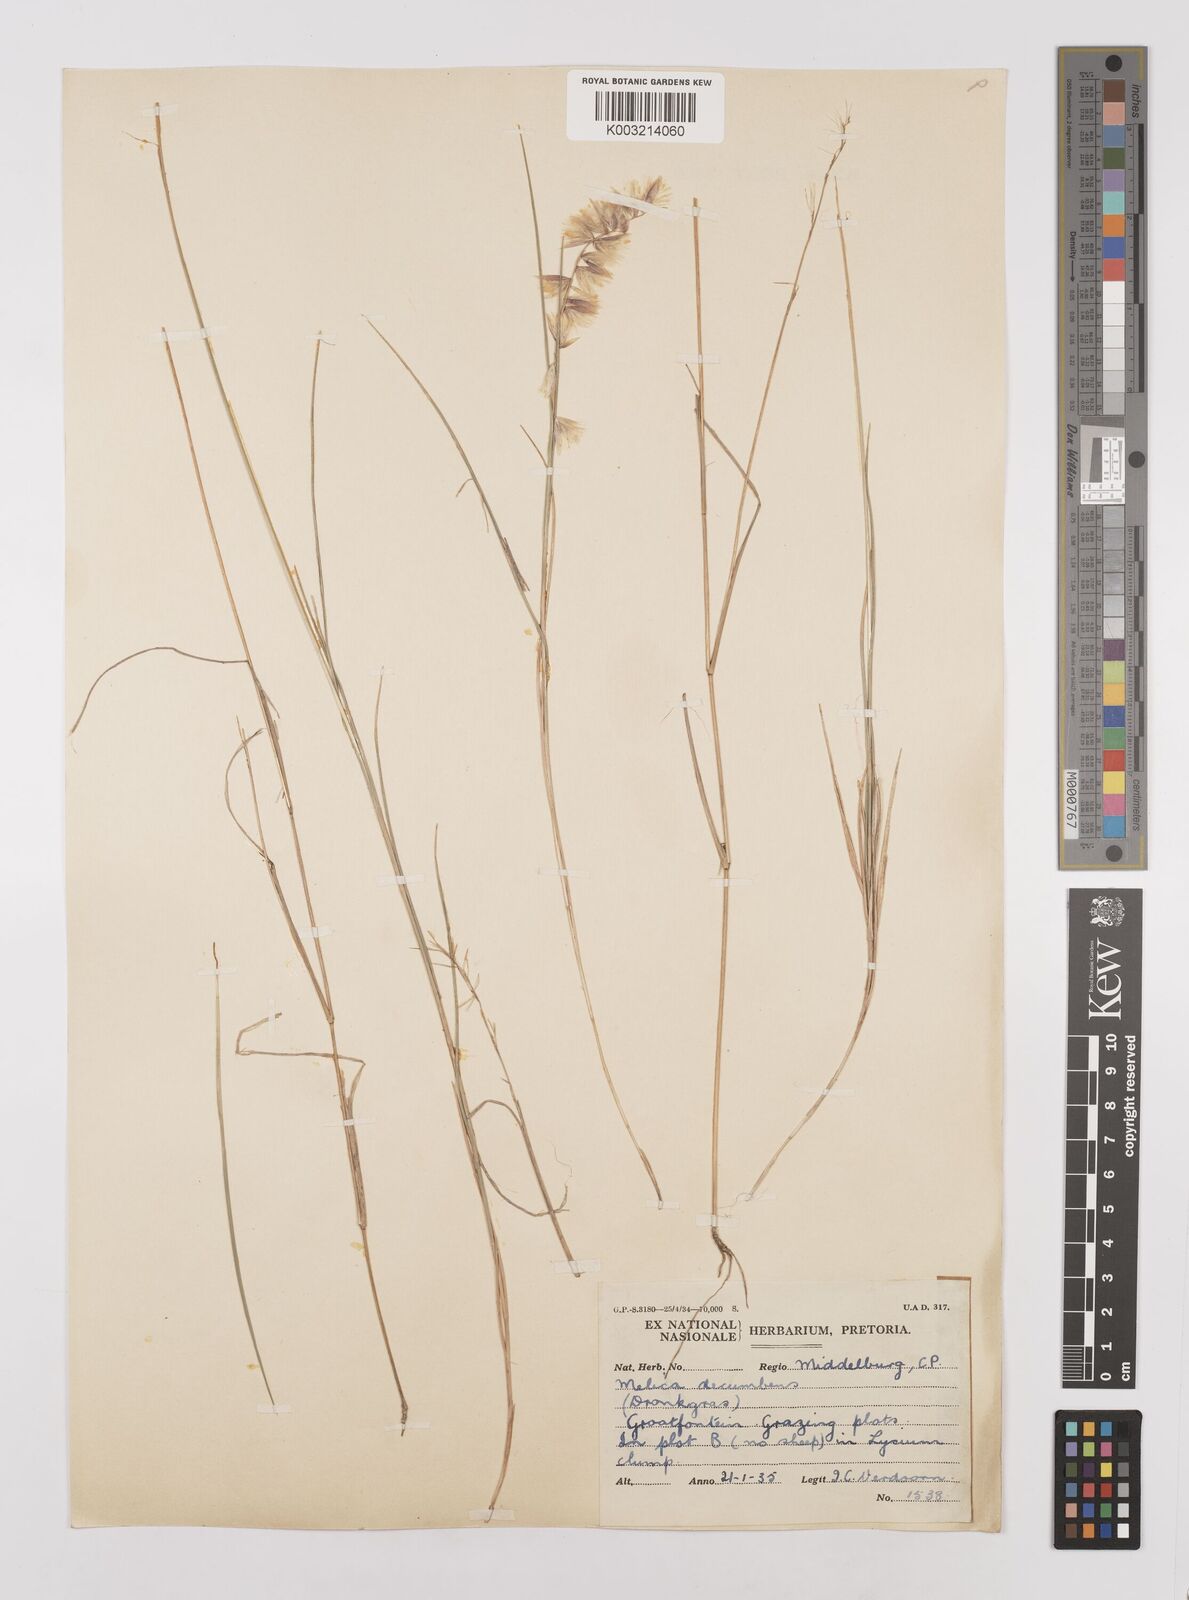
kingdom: Plantae
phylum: Tracheophyta
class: Liliopsida
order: Poales
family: Poaceae
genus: Melica
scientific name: Melica dendroides
